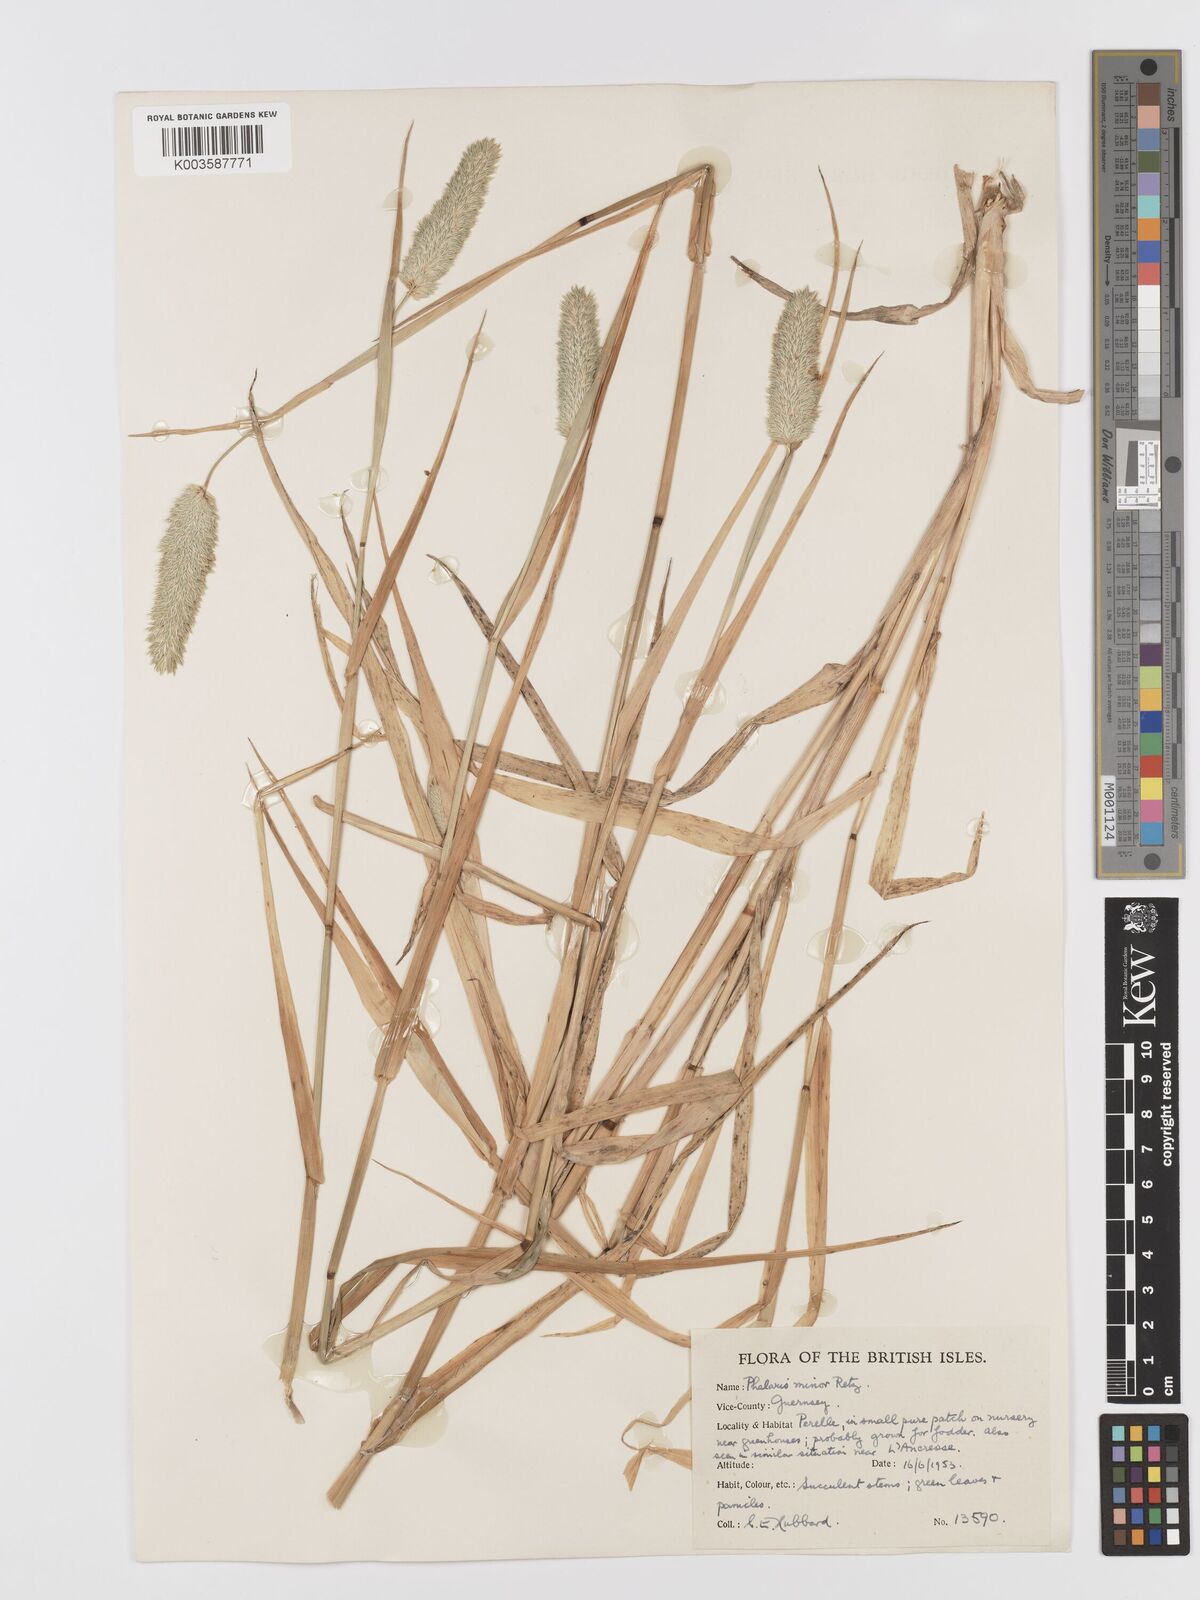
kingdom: Plantae
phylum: Tracheophyta
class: Liliopsida
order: Poales
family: Poaceae
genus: Phalaris
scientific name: Phalaris minor
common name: Littleseed canarygrass
